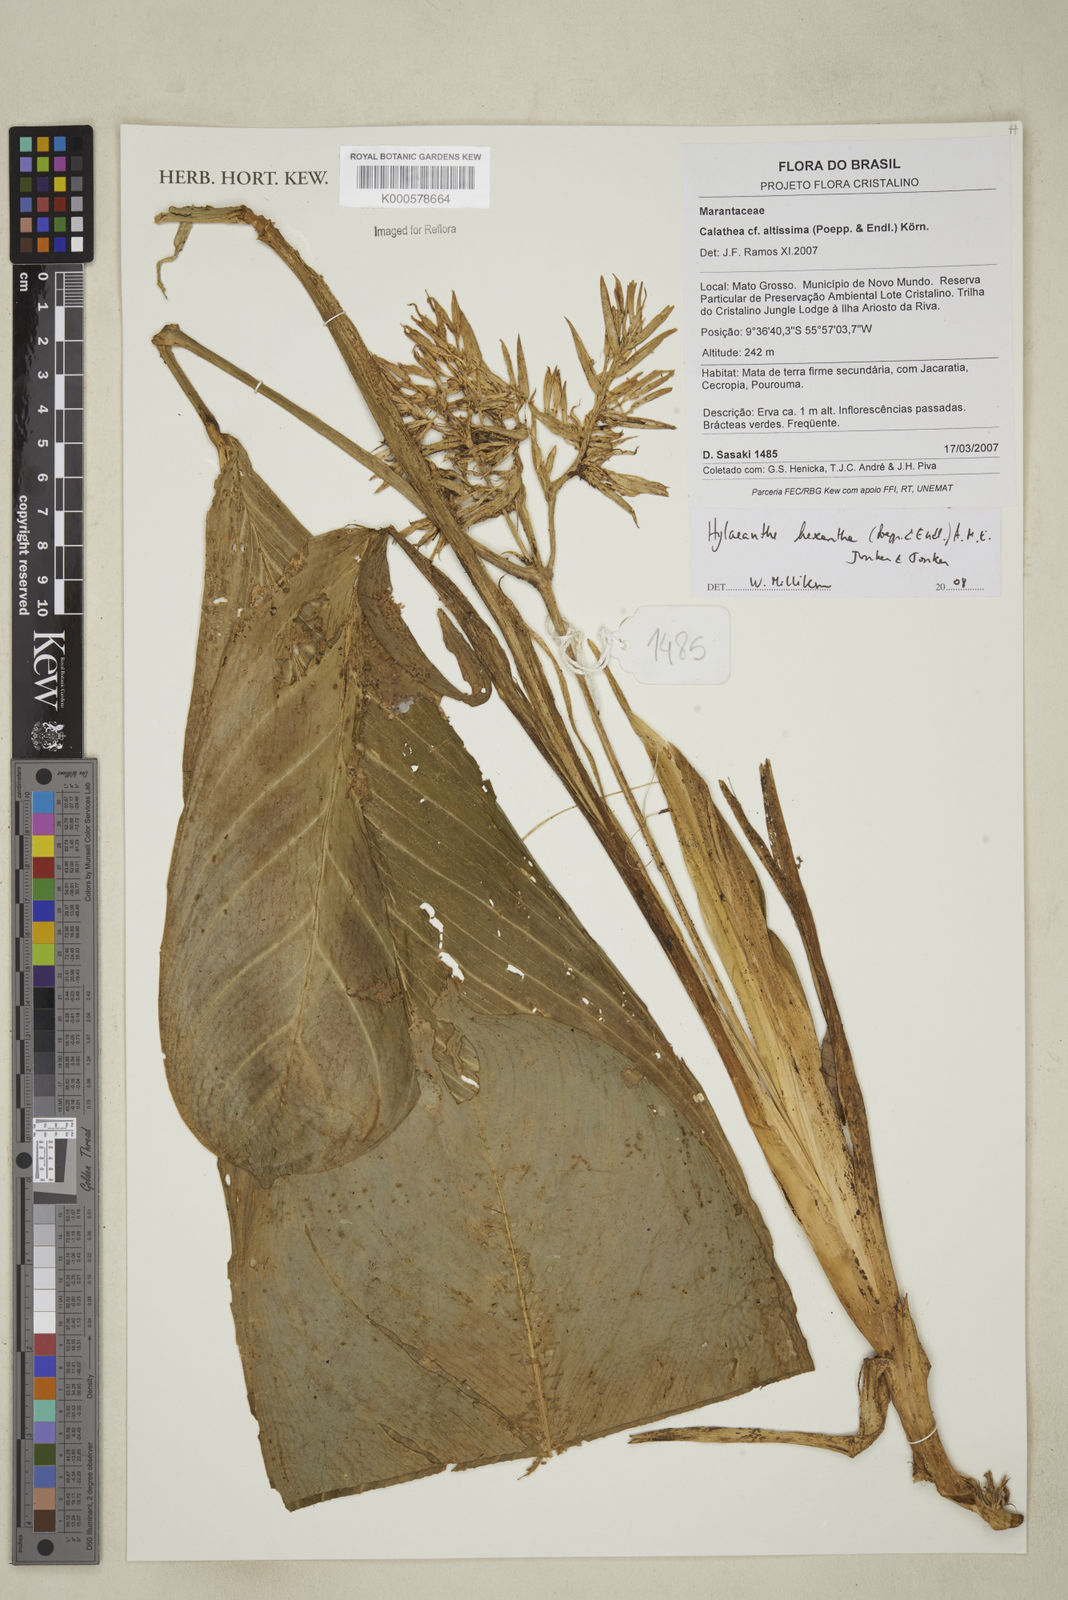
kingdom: Plantae
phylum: Tracheophyta
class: Liliopsida
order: Zingiberales
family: Marantaceae
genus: Hylaeanthe
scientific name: Hylaeanthe hexantha
